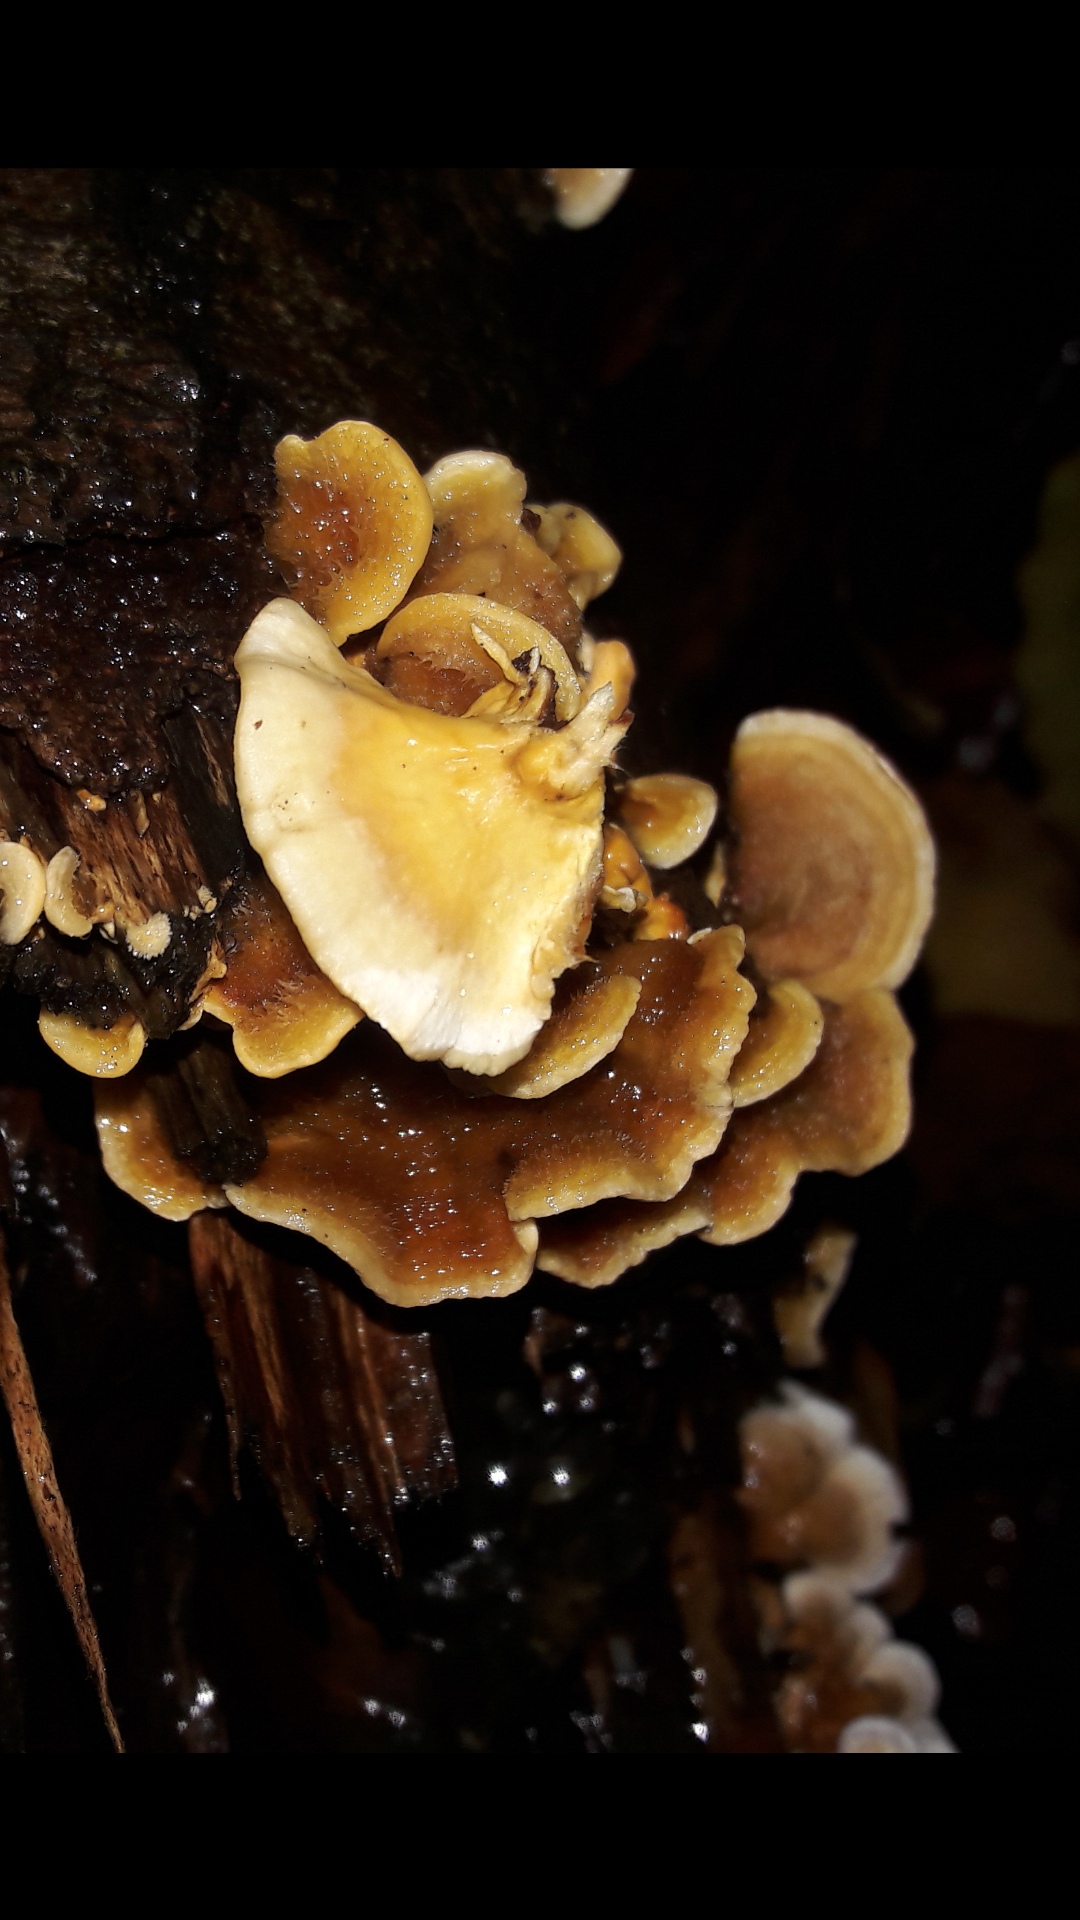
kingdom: Fungi
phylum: Basidiomycota
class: Agaricomycetes
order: Russulales
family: Stereaceae
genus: Stereum
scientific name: Stereum hirsutum
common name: håret lædersvamp
